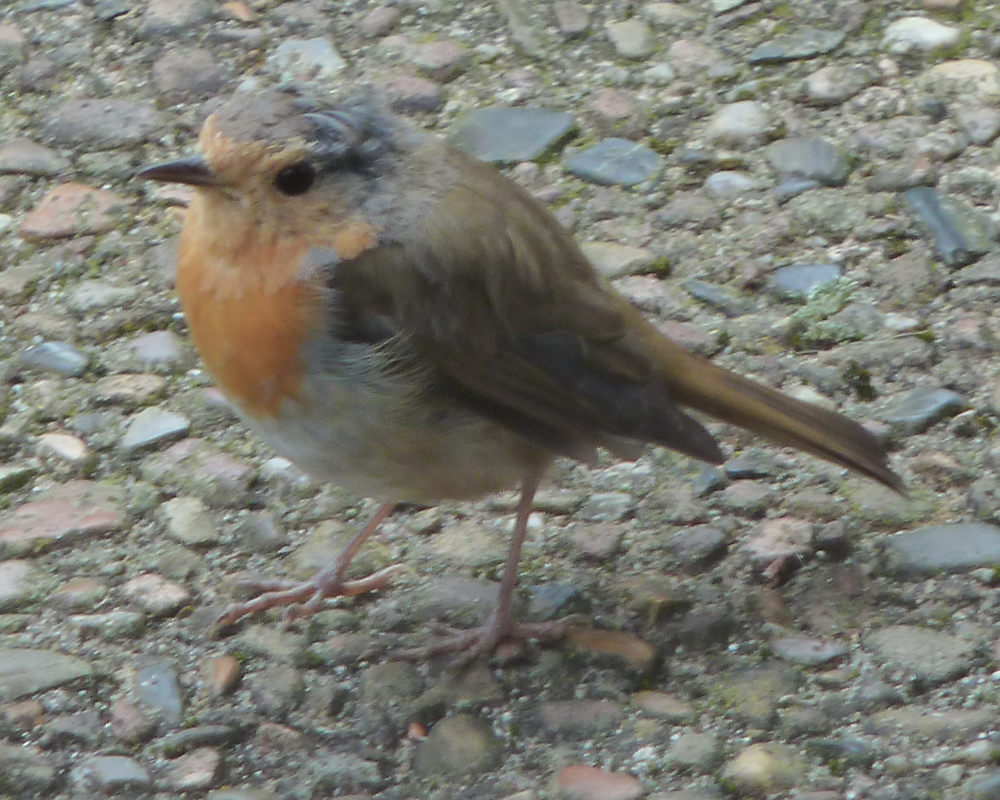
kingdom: Animalia
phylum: Chordata
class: Aves
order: Passeriformes
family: Muscicapidae
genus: Erithacus
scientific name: Erithacus rubecula
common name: European robin
